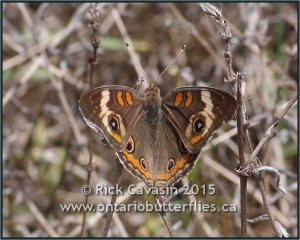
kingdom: Animalia
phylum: Arthropoda
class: Insecta
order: Lepidoptera
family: Nymphalidae
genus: Junonia
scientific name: Junonia coenia
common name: Common Buckeye
